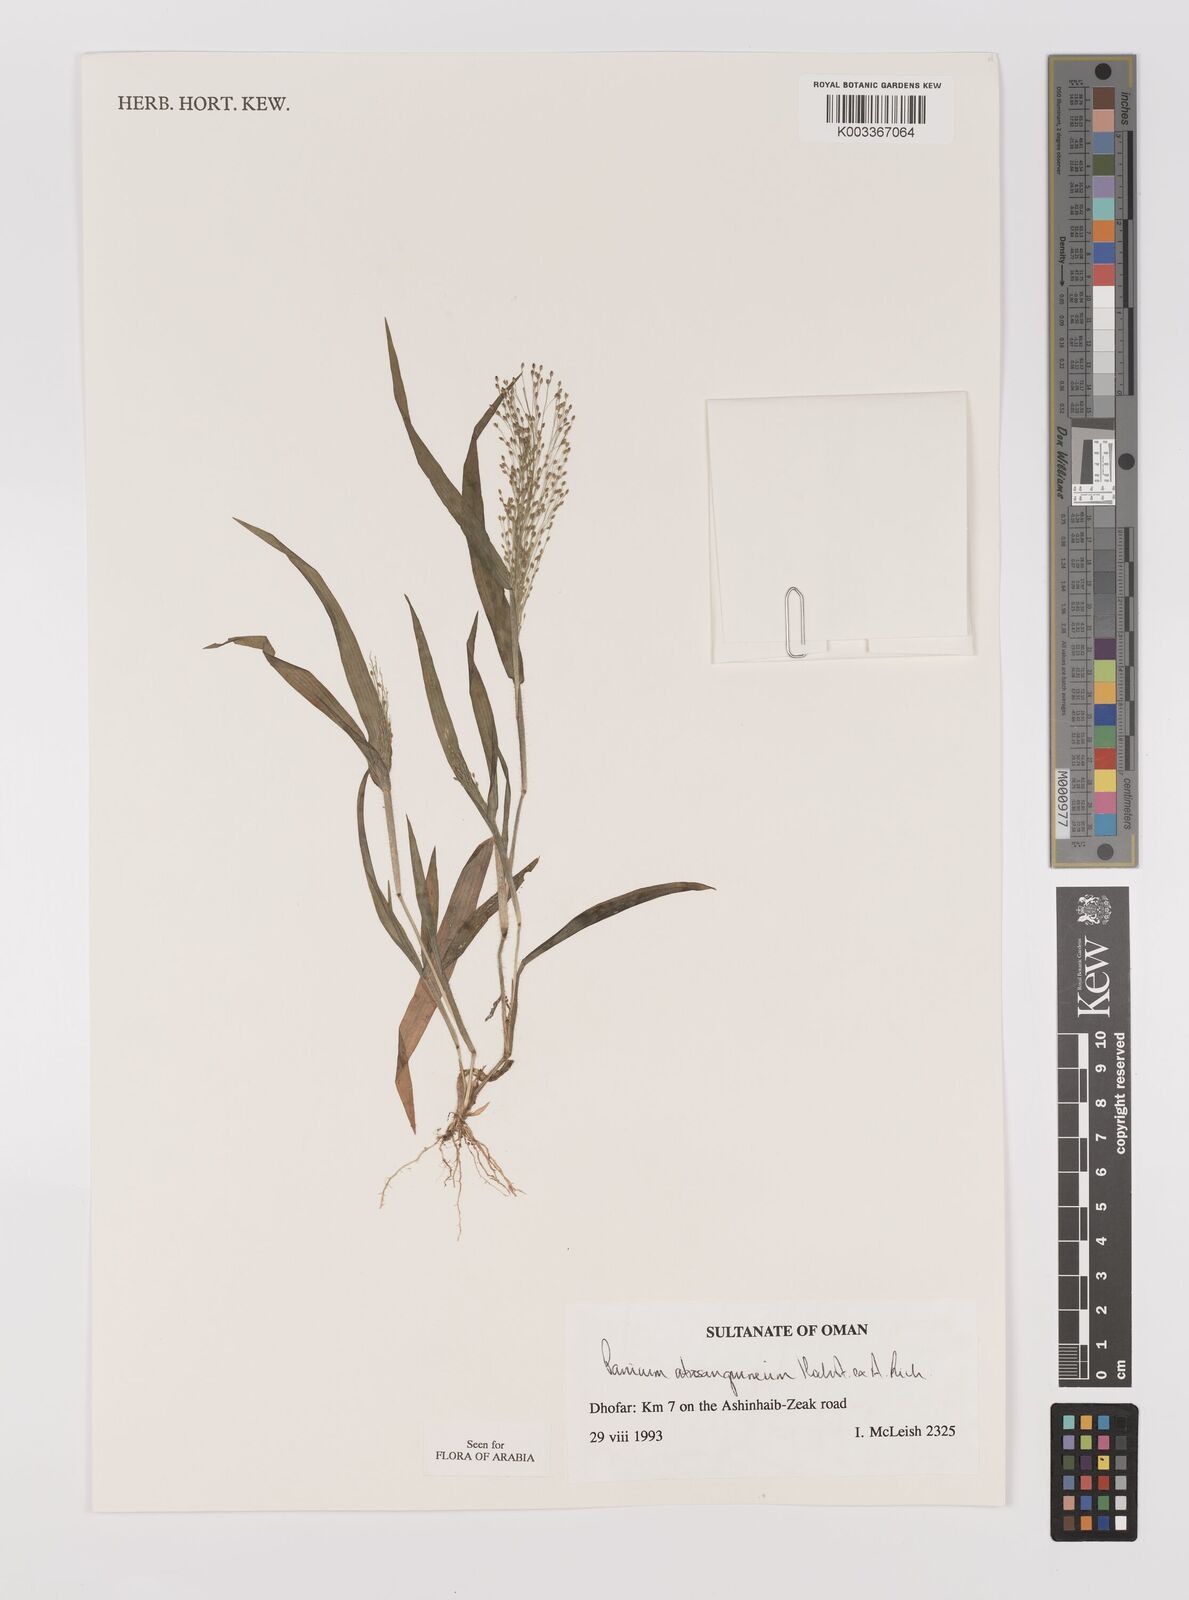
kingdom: Plantae
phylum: Tracheophyta
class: Liliopsida
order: Poales
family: Poaceae
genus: Panicum
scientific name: Panicum atrosanguineum
